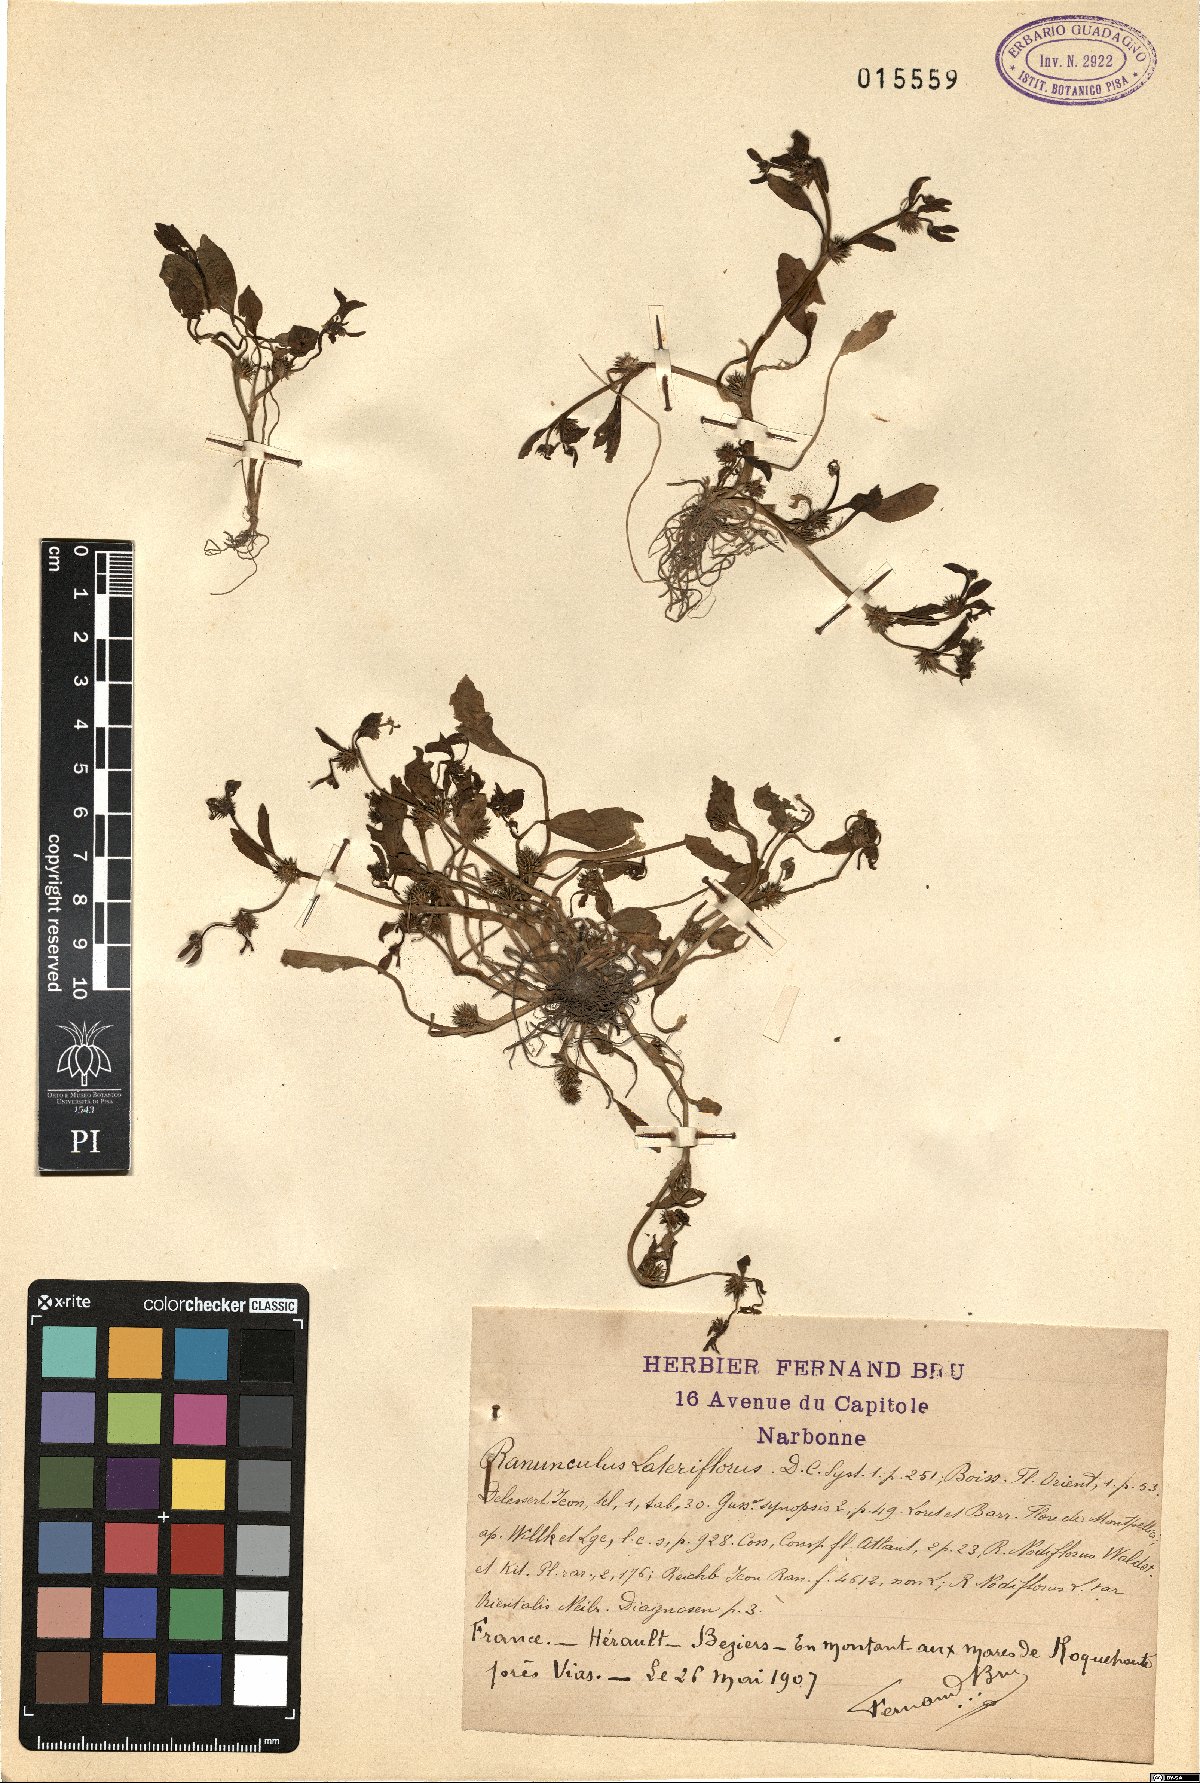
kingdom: Plantae
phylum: Tracheophyta
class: Magnoliopsida
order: Ranunculales
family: Ranunculaceae
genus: Ranunculus
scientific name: Ranunculus lateriflorus
